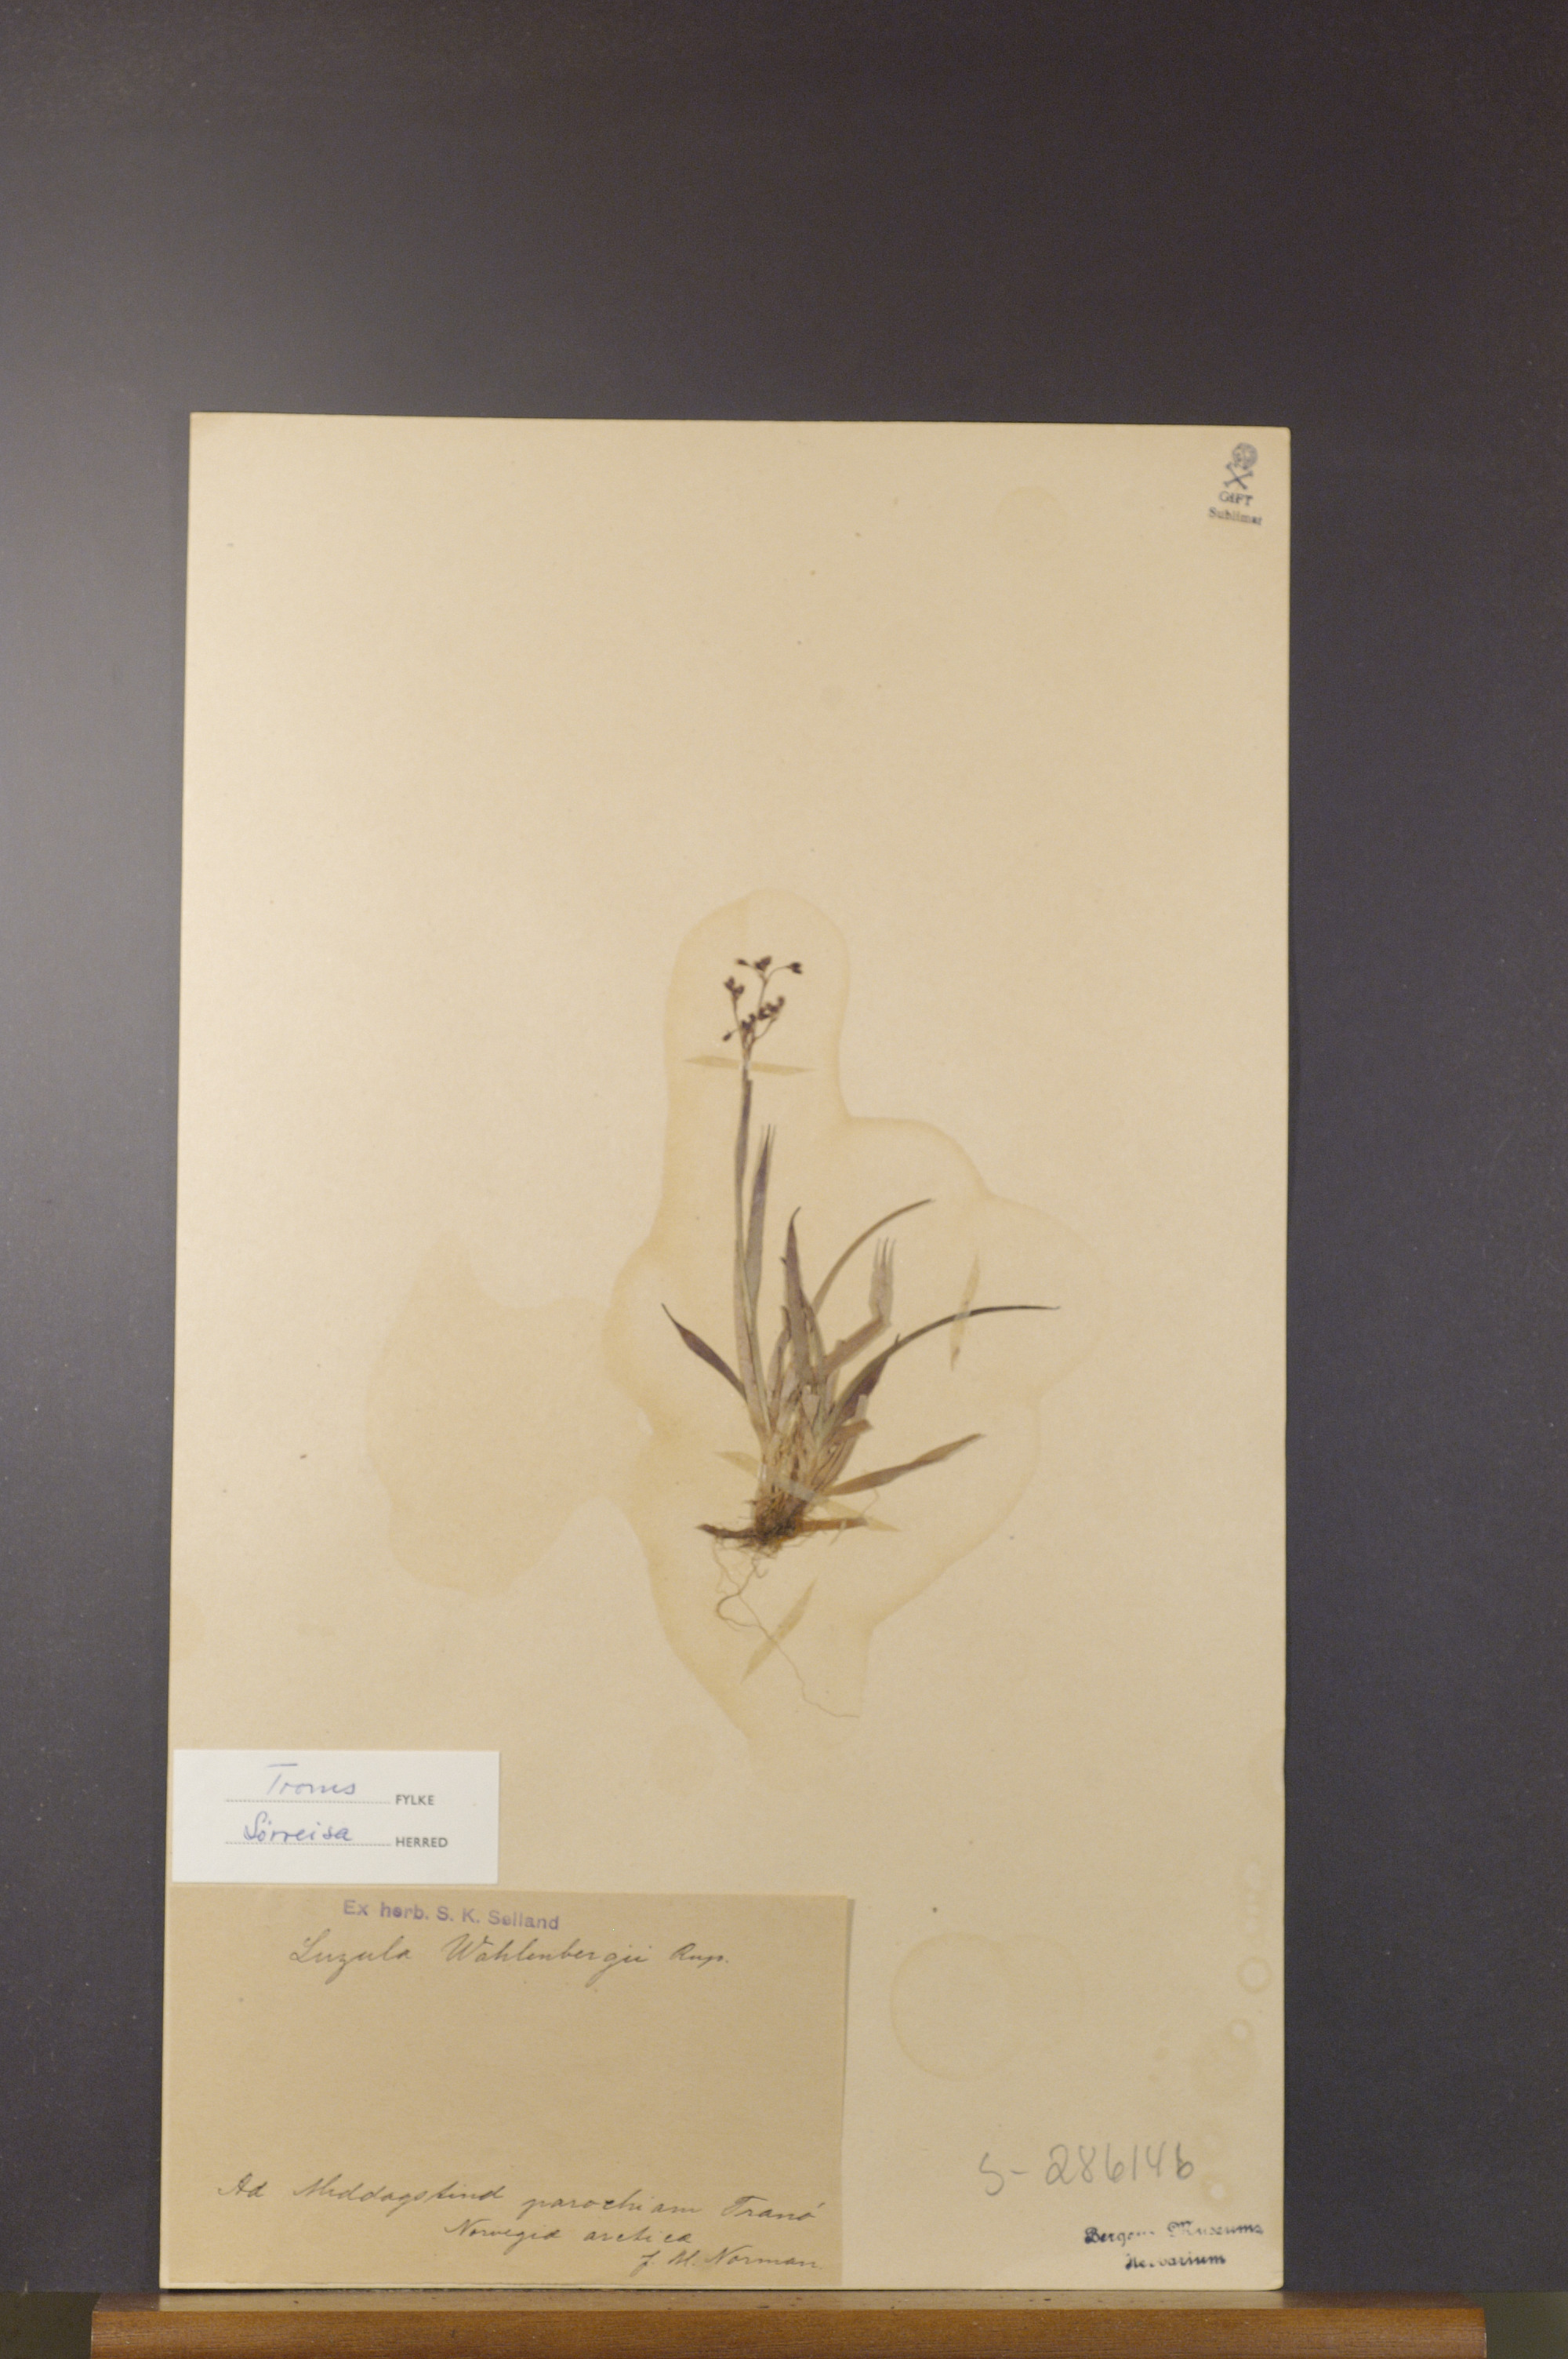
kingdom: Plantae
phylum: Tracheophyta
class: Liliopsida
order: Poales
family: Juncaceae
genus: Luzula
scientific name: Luzula wahlenbergii
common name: Wahlenberg's wood-rush
